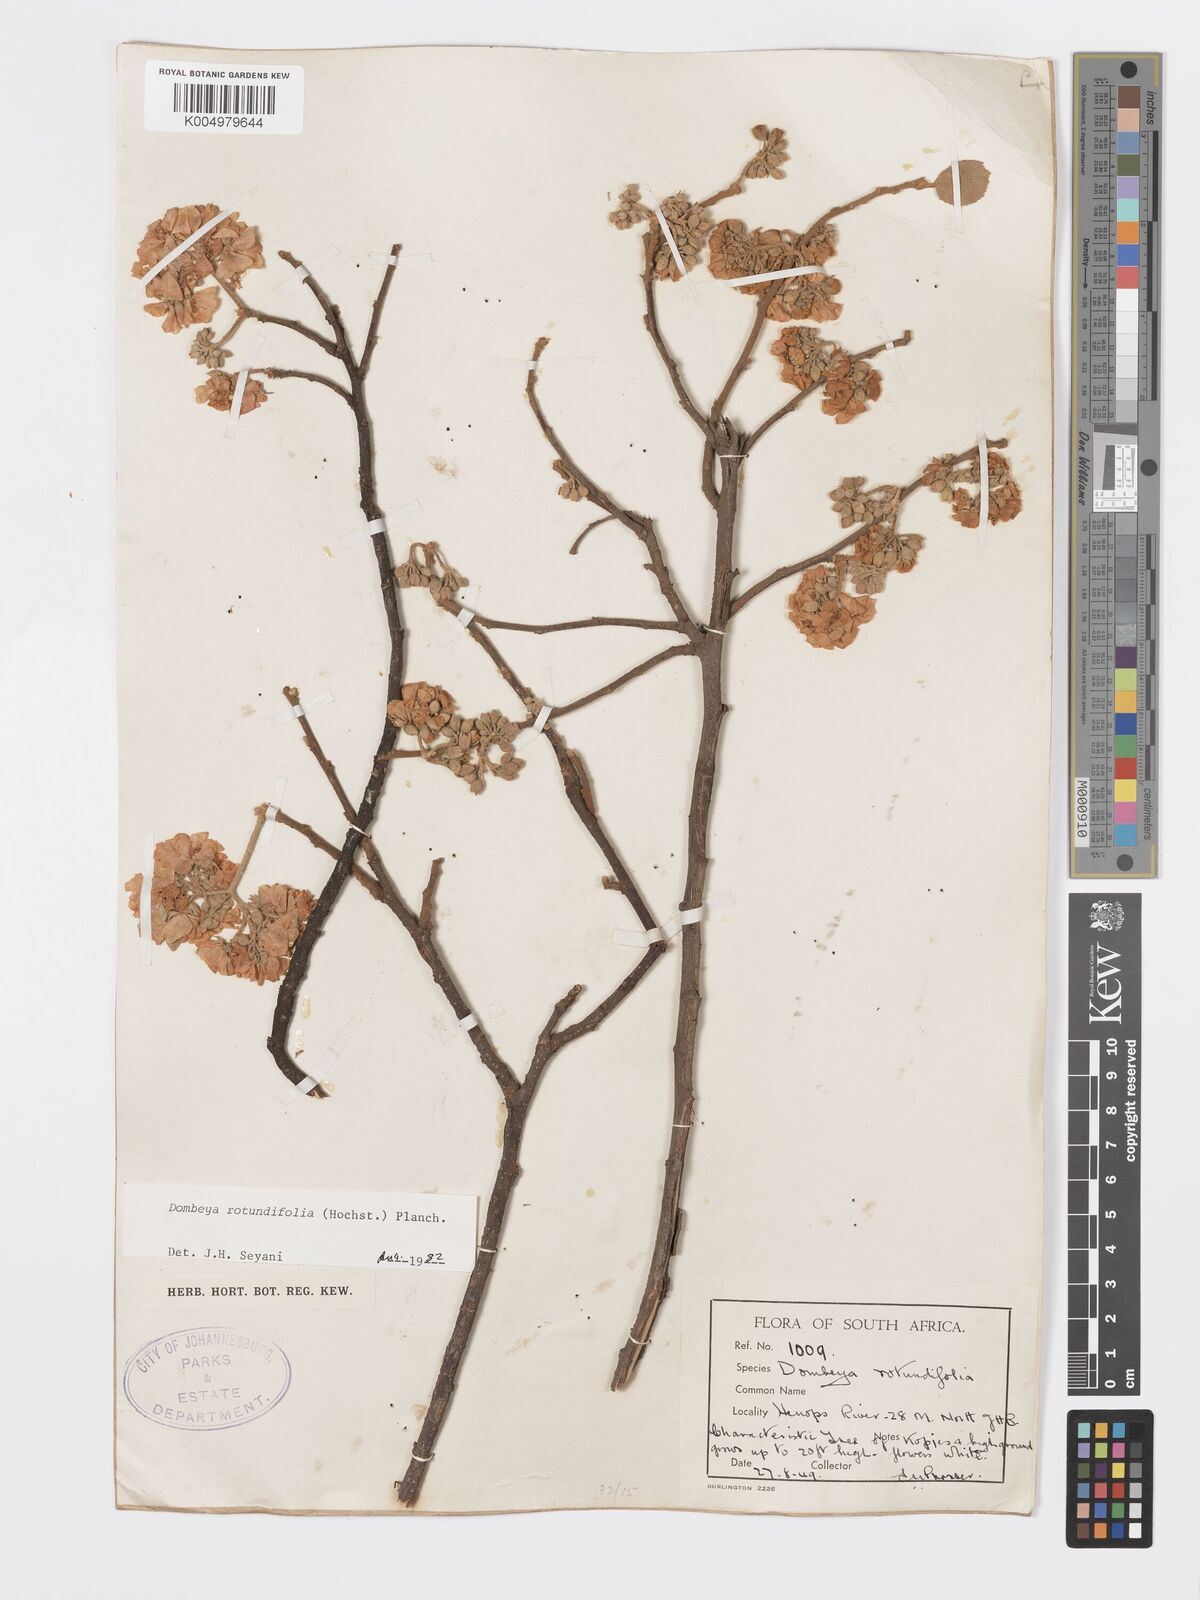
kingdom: Plantae
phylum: Tracheophyta
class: Magnoliopsida
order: Malvales
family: Malvaceae
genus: Dombeya
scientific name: Dombeya rotundifolia
